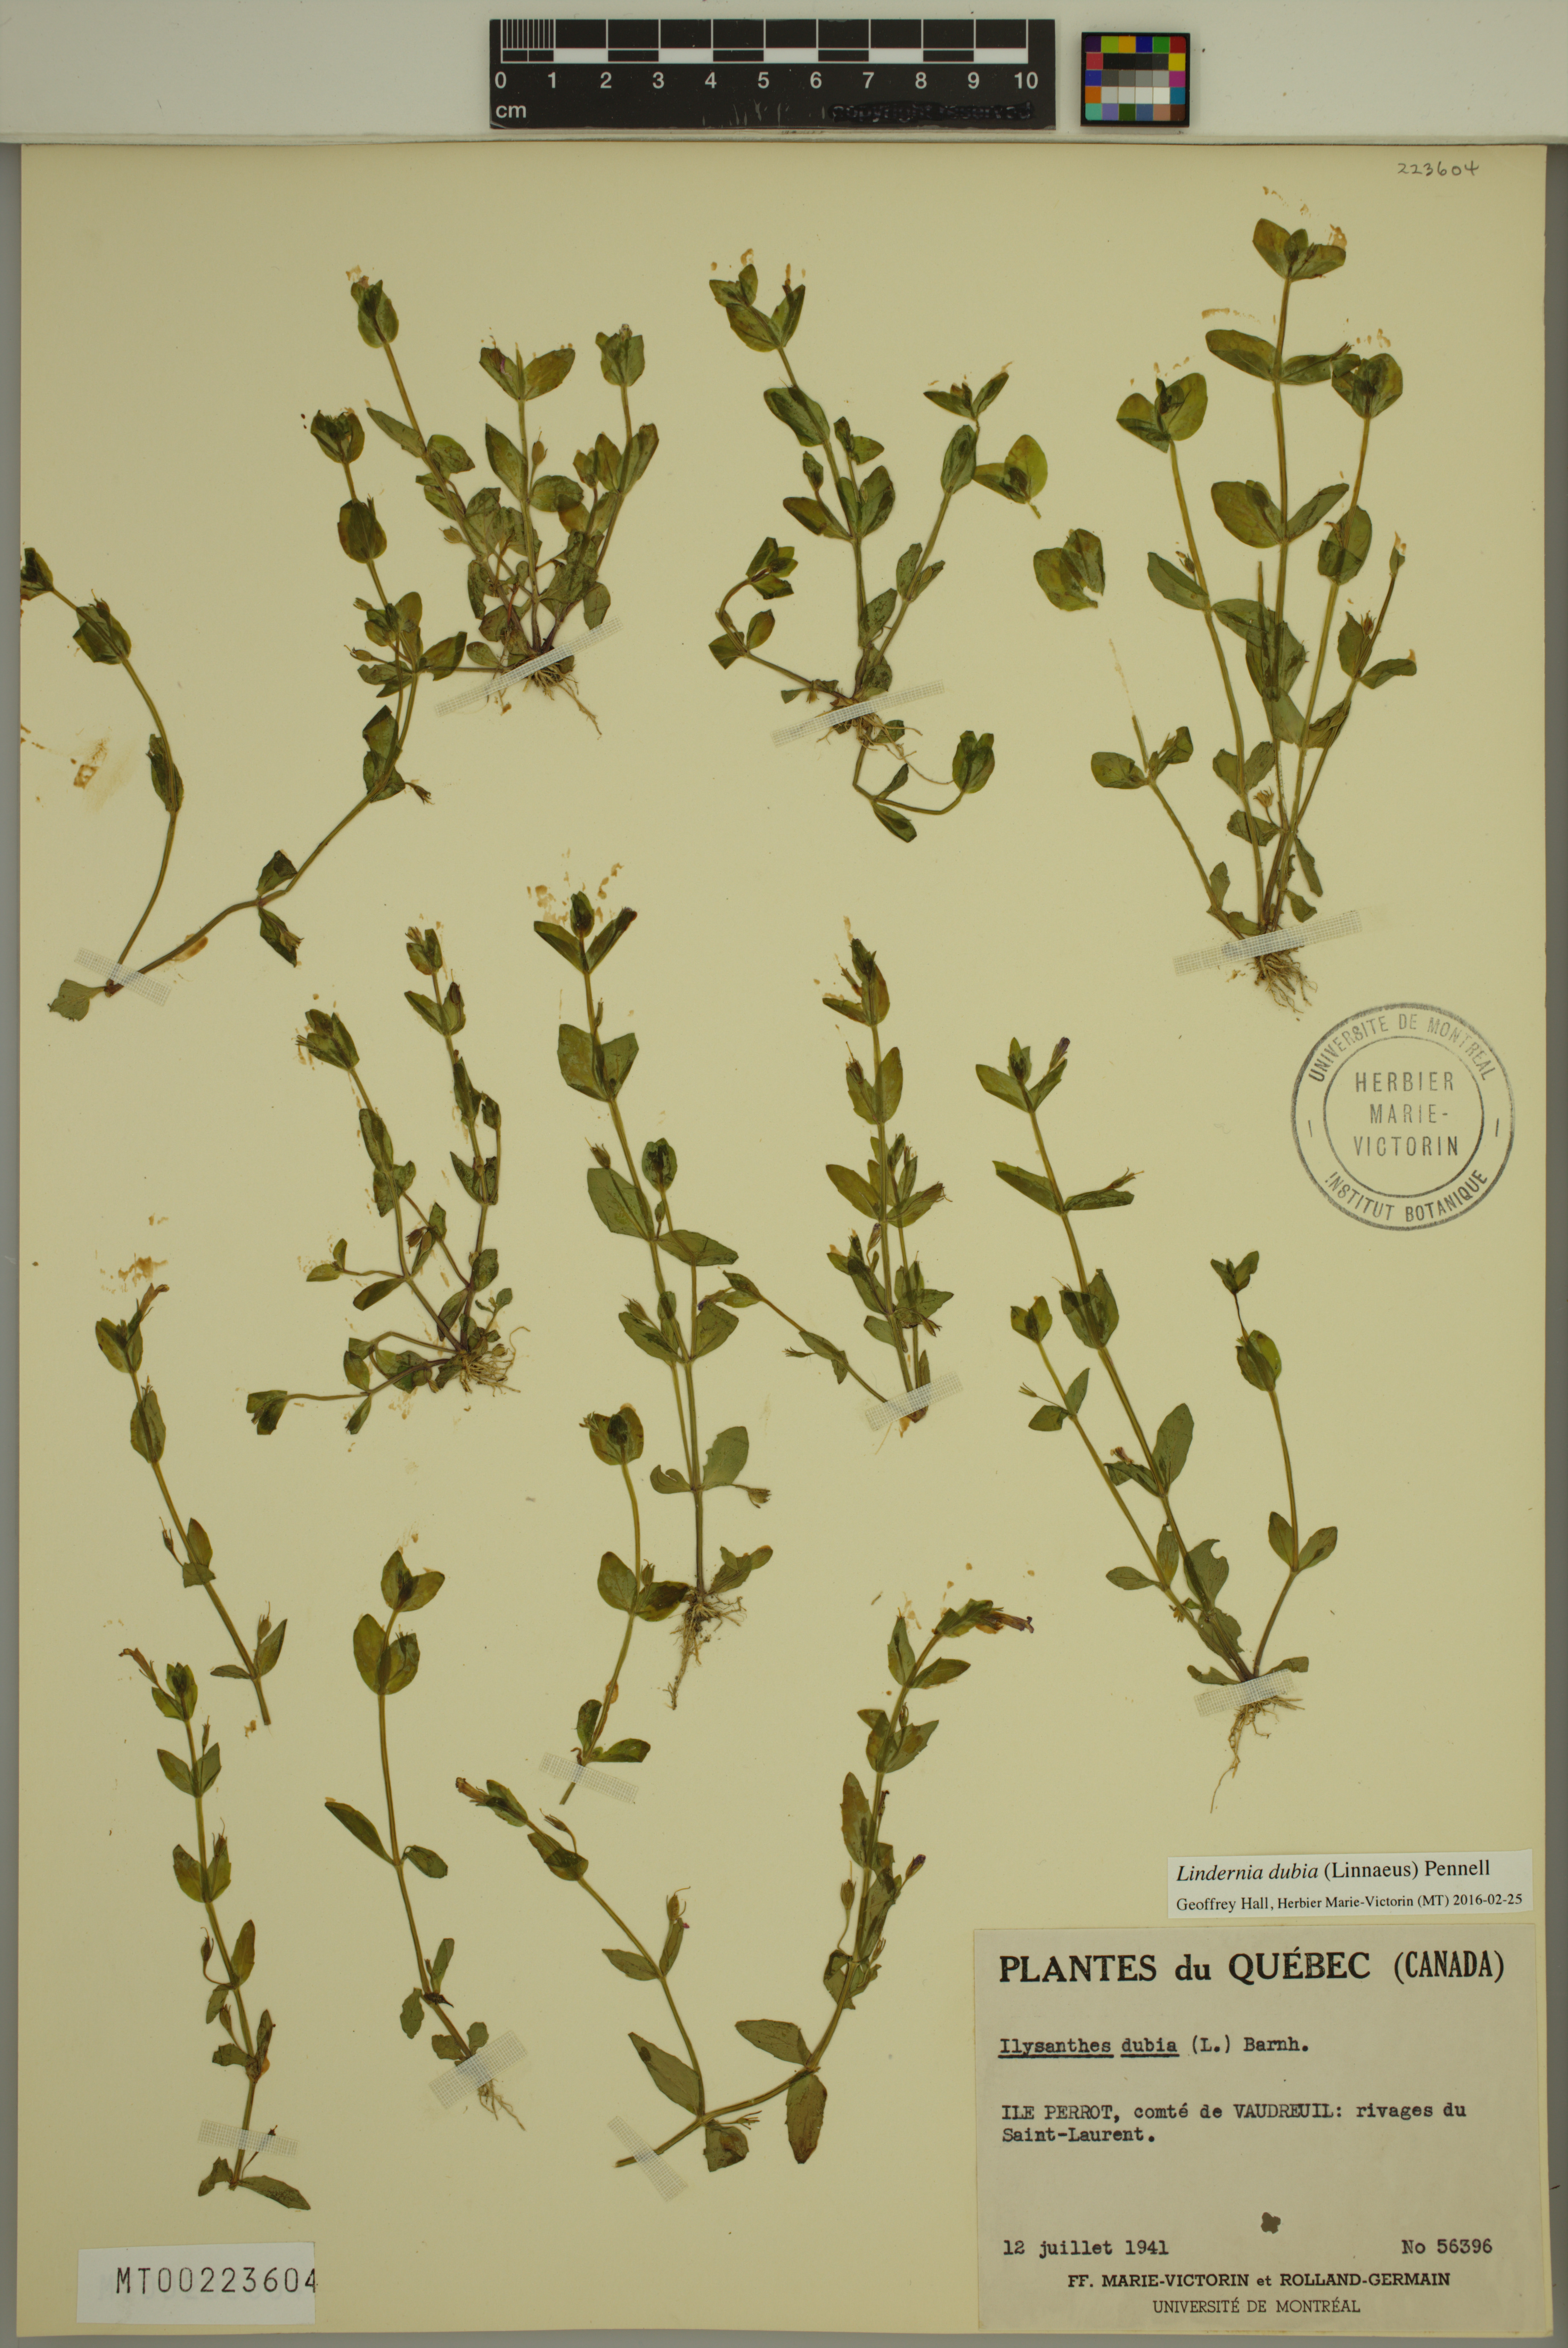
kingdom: Plantae
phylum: Tracheophyta
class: Magnoliopsida
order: Lamiales
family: Linderniaceae
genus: Lindernia
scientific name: Lindernia dubia
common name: Annual false pimpernel
